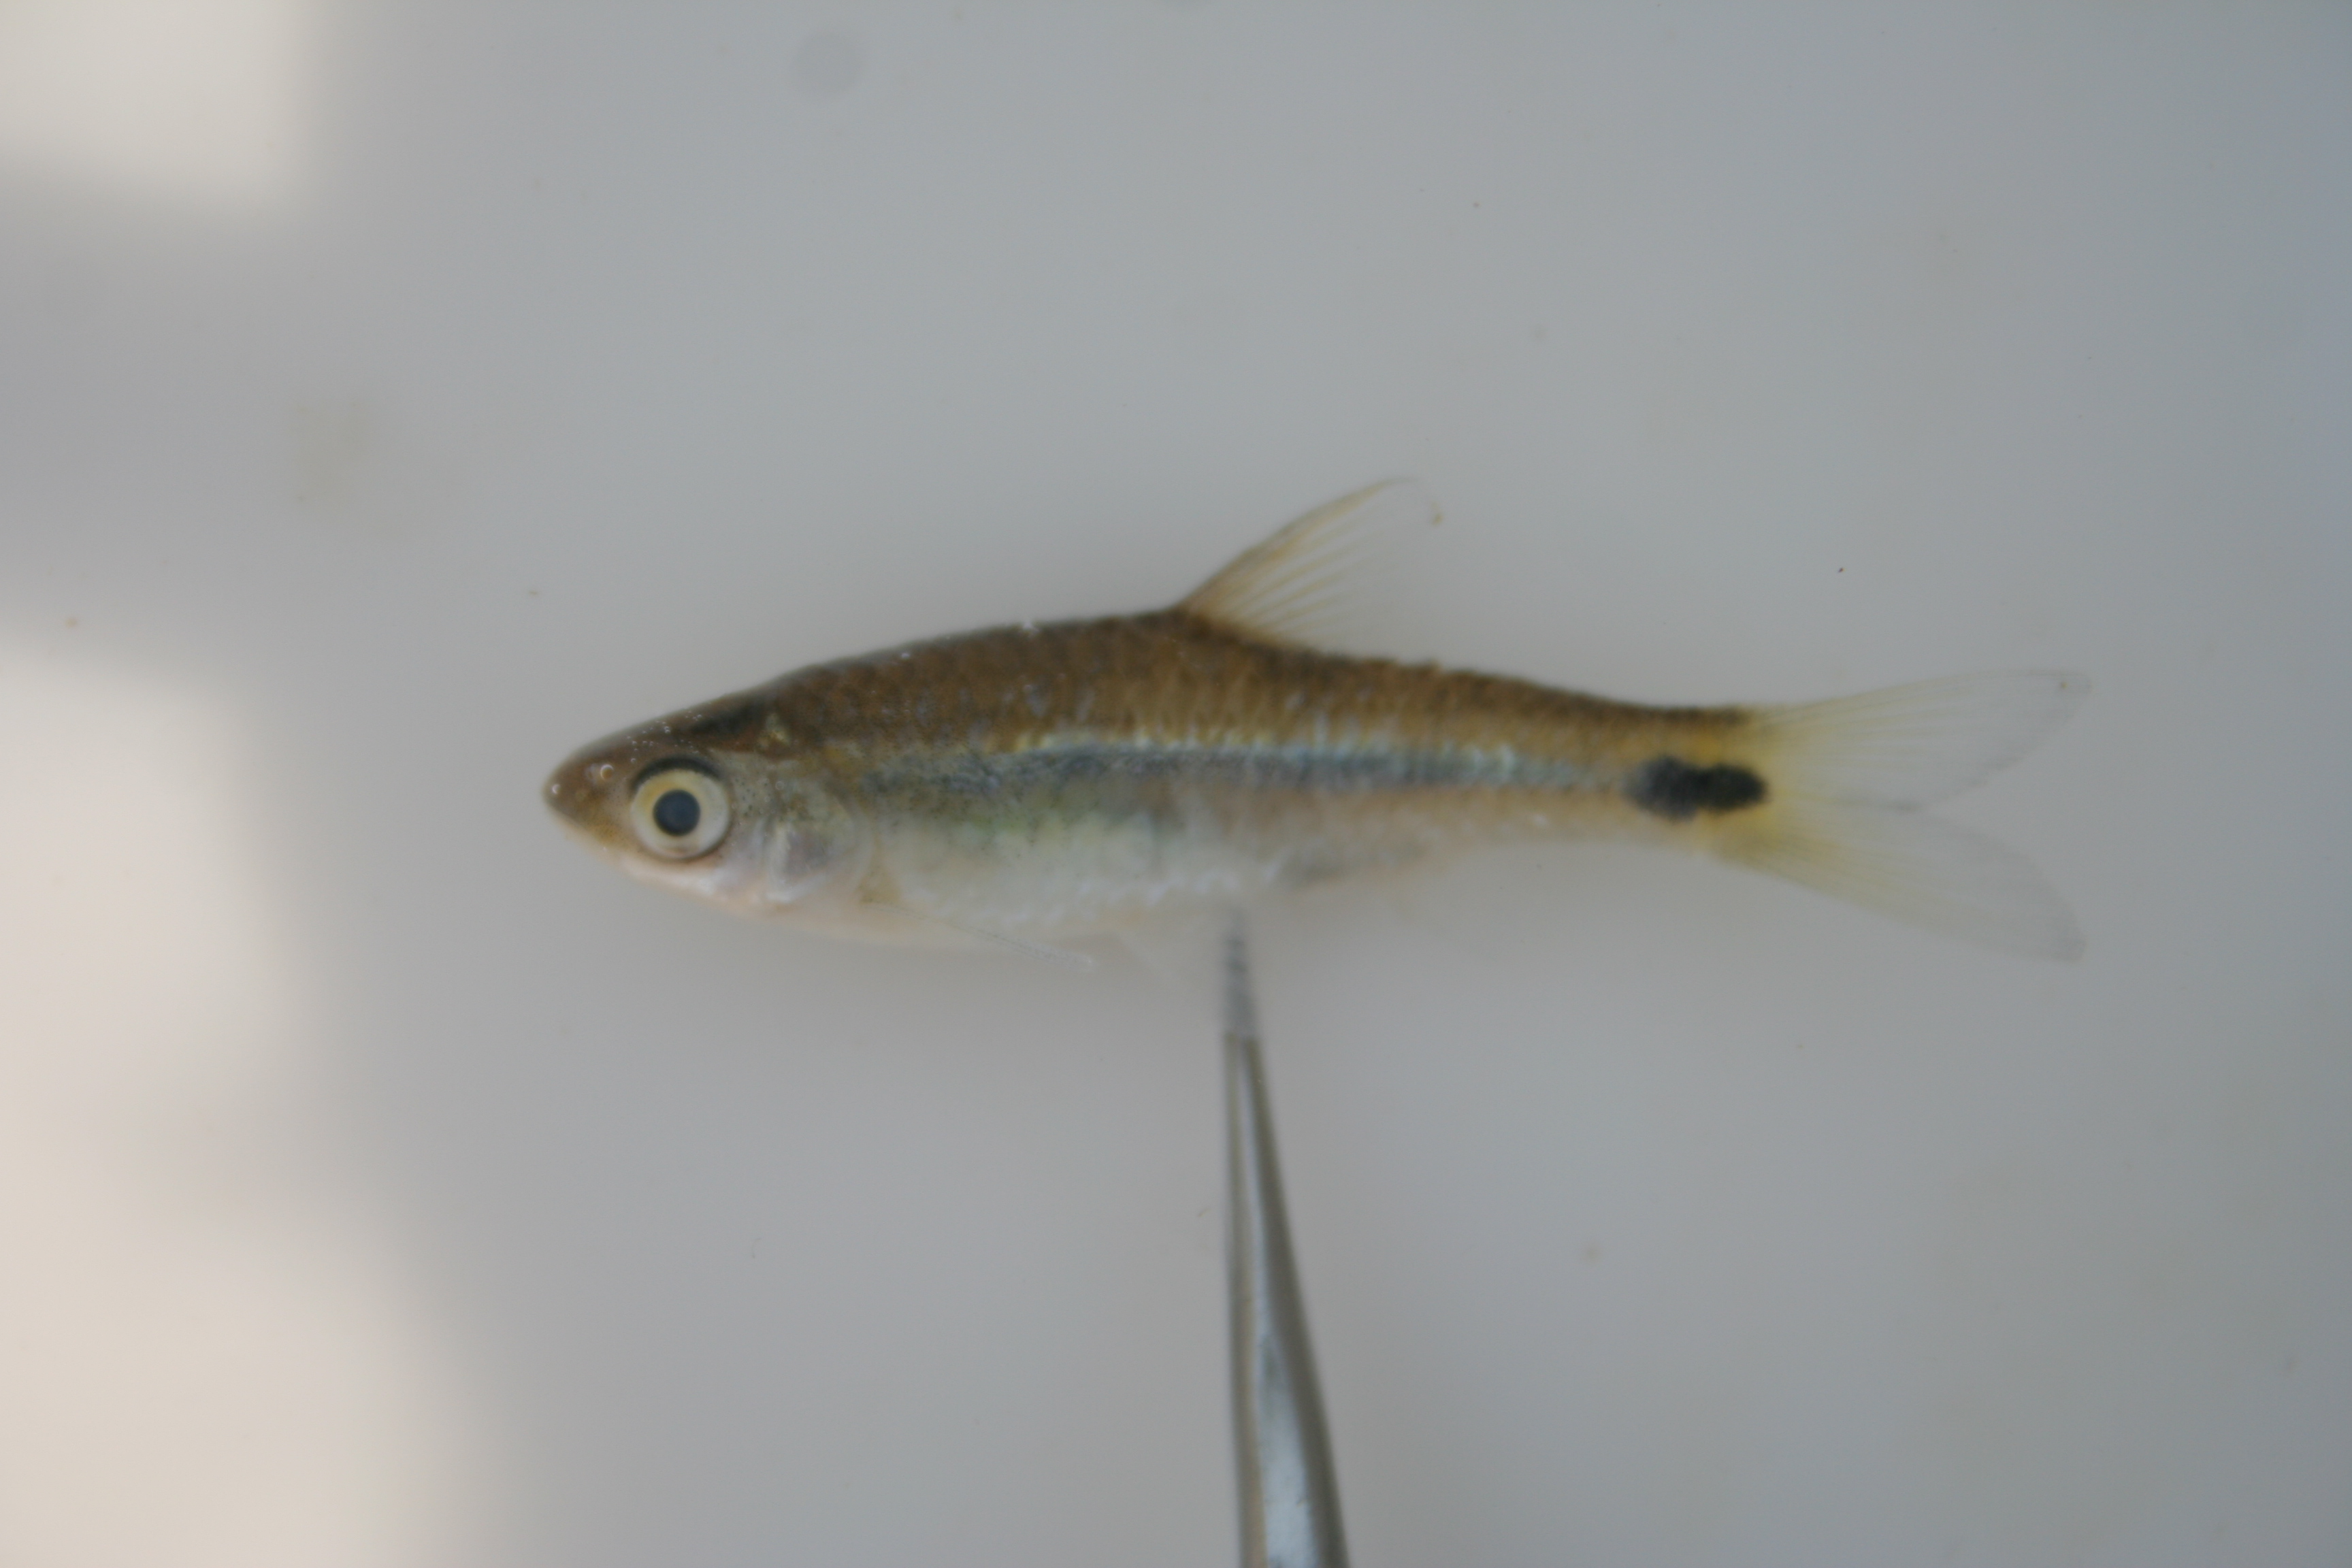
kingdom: Animalia
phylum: Chordata
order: Cypriniformes
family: Cyprinidae
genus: Barbus
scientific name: Barbus
